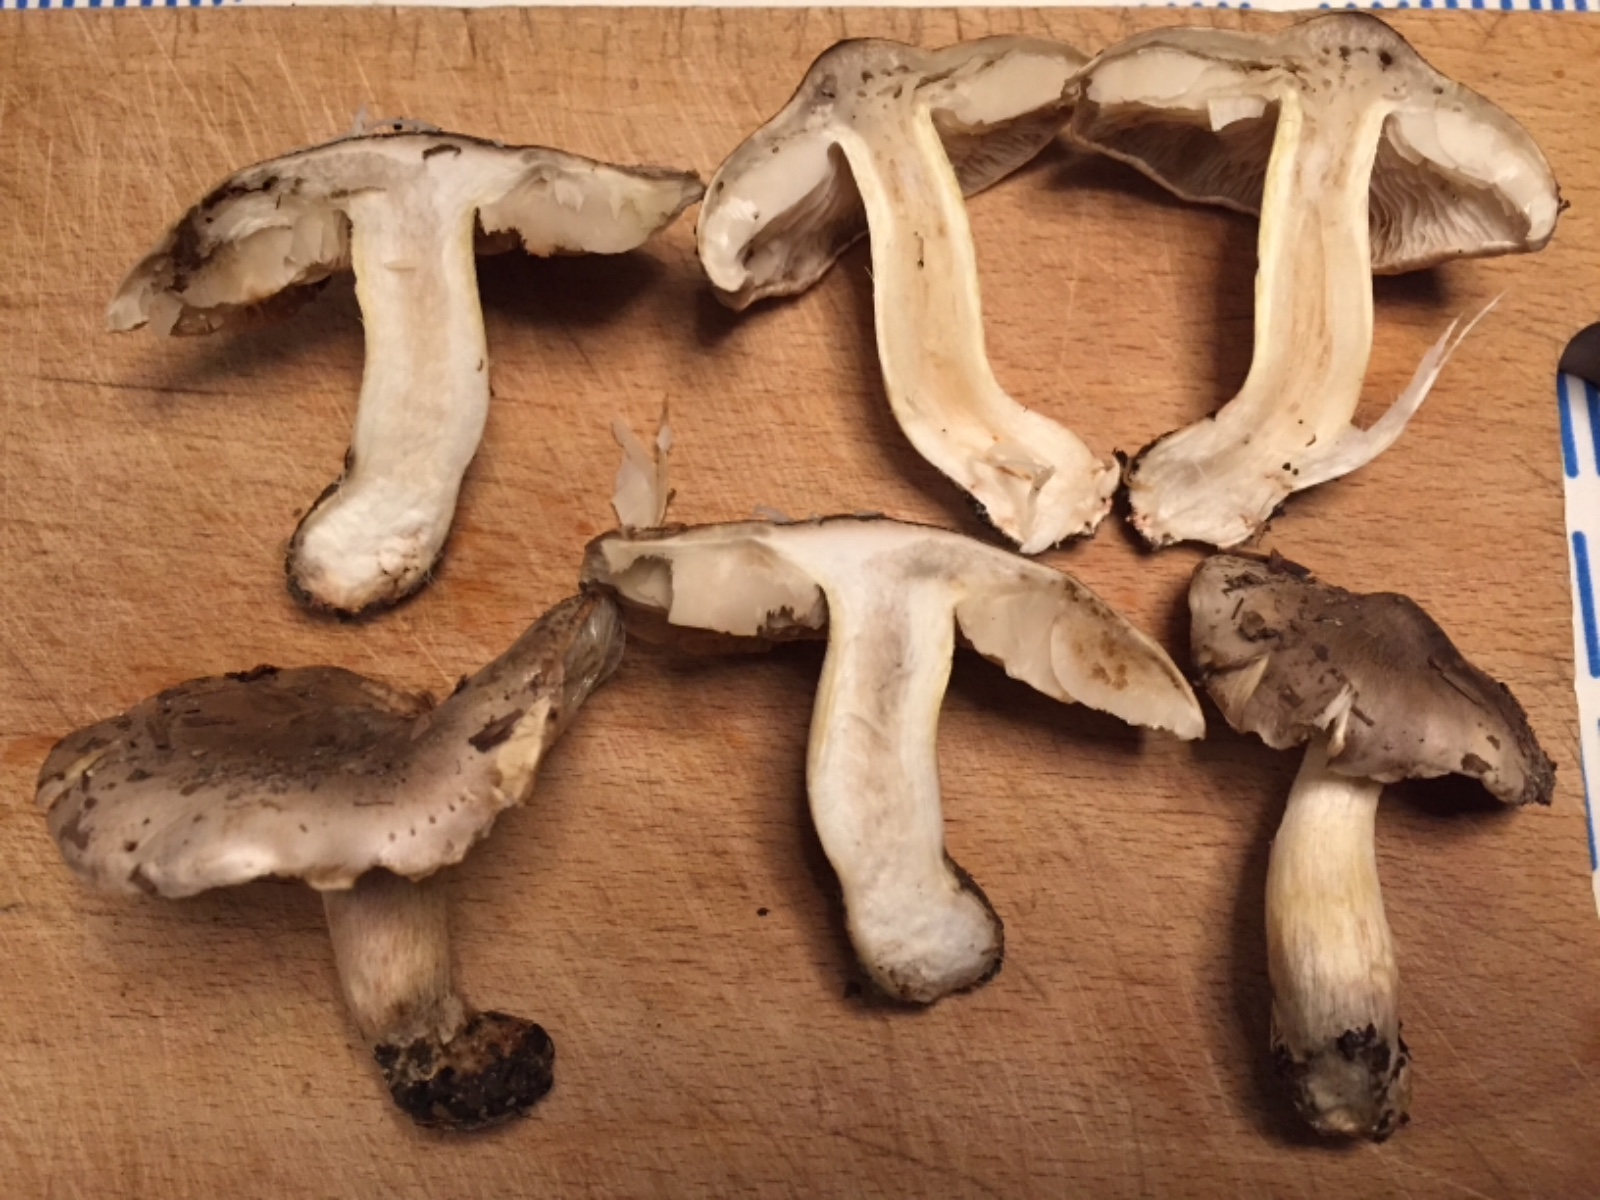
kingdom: Fungi
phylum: Basidiomycota
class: Agaricomycetes
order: Agaricales
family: Tricholomataceae
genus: Tricholoma
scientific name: Tricholoma portentosum
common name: grå ridderhat
